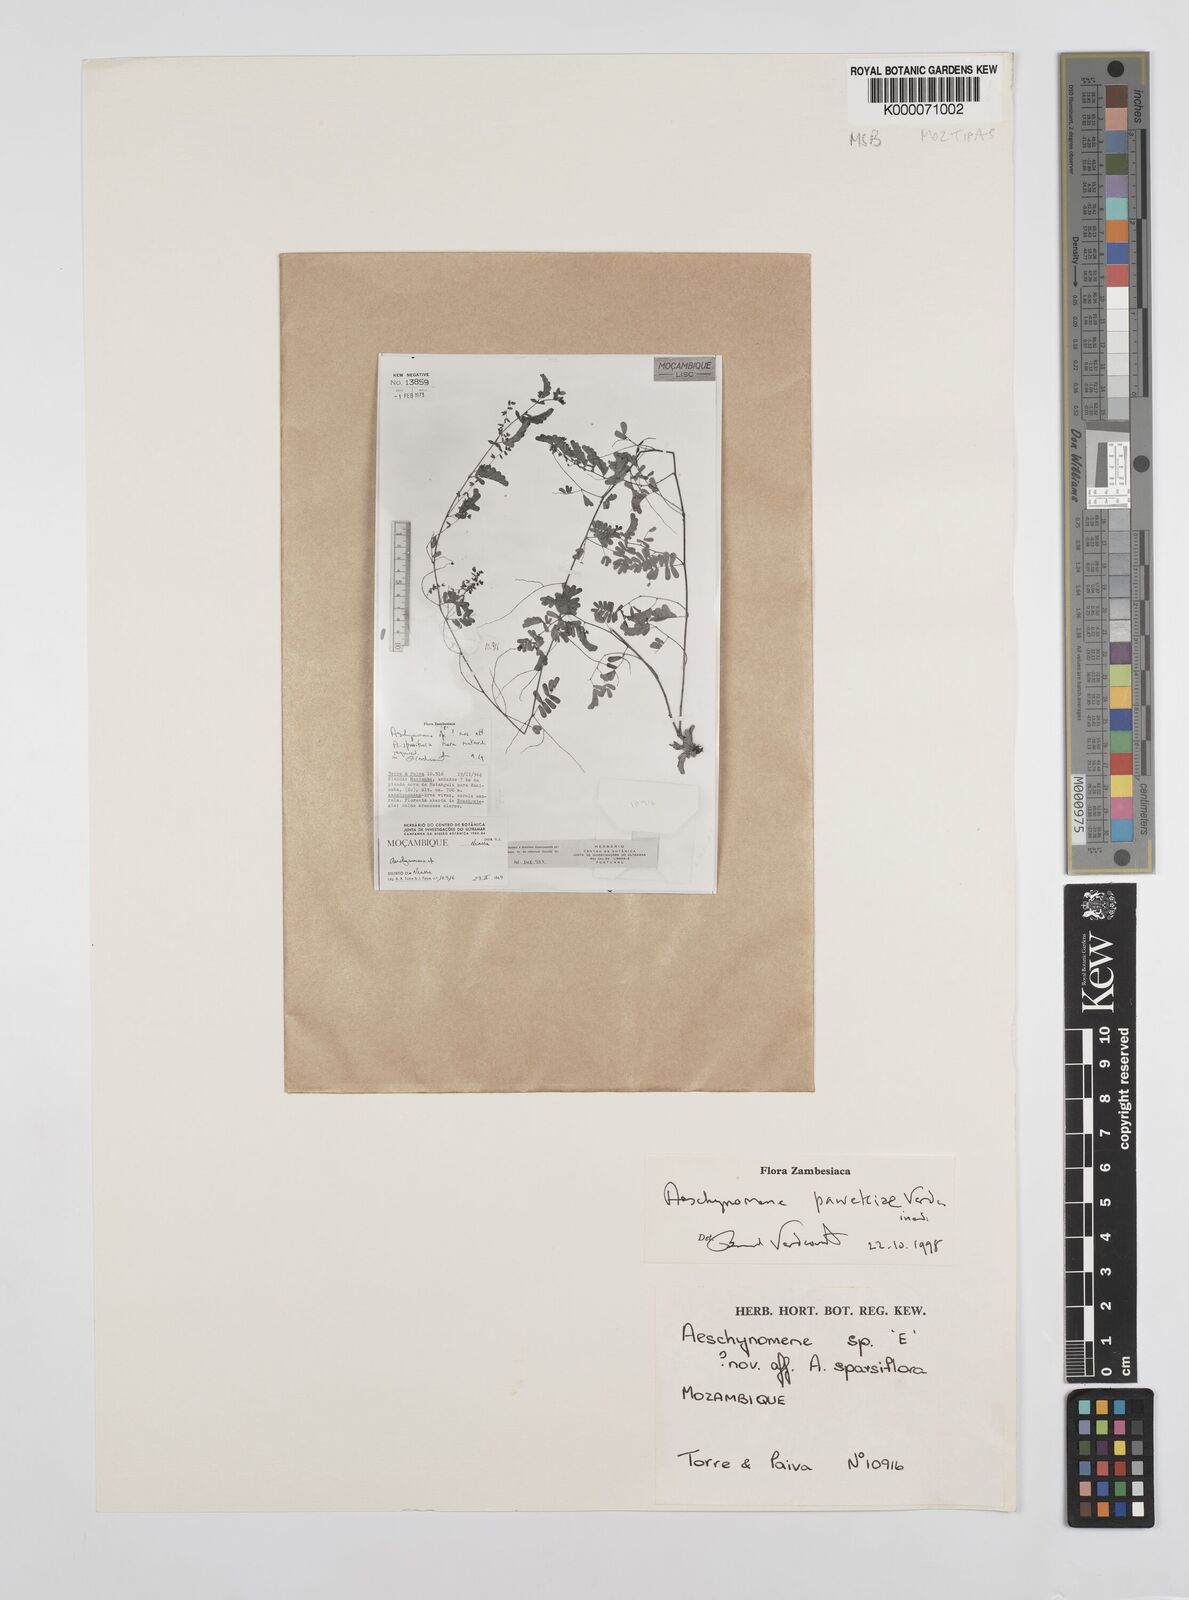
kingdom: Plantae
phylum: Tracheophyta
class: Magnoliopsida
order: Fabales
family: Fabaceae
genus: Aeschynomene
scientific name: Aeschynomene pawekiae
